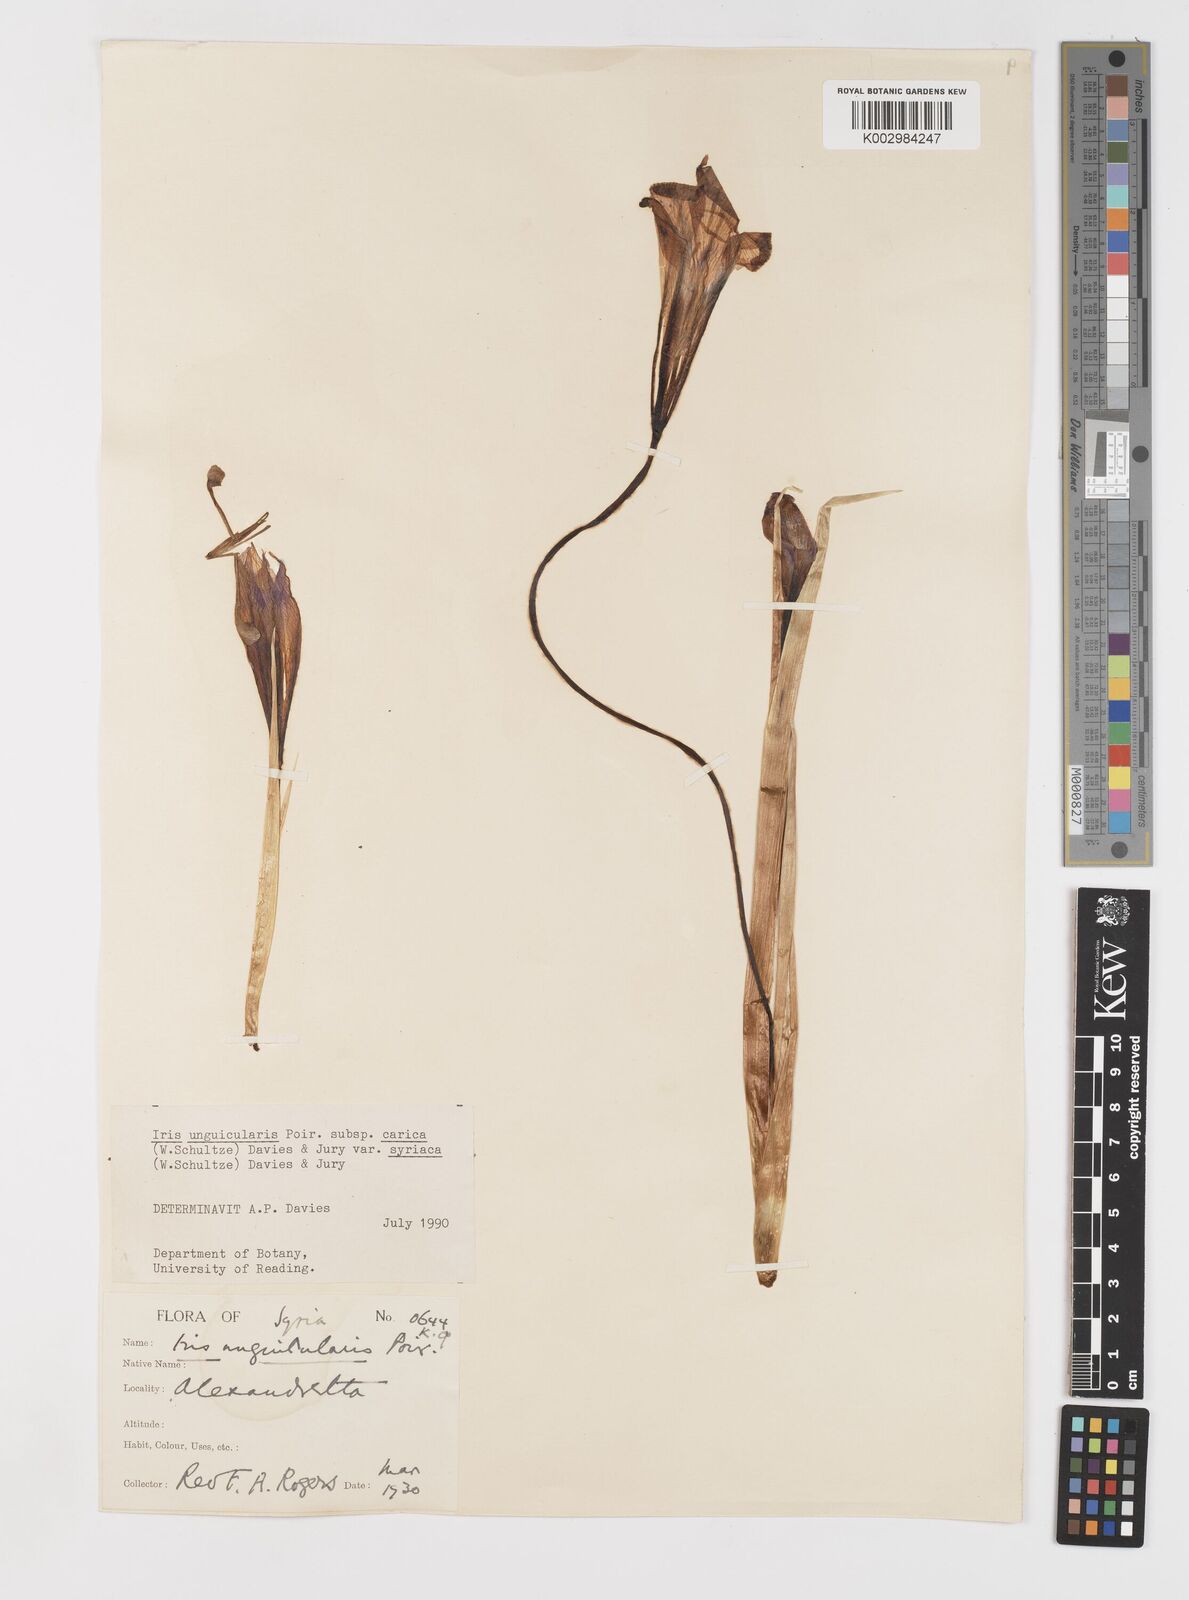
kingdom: Plantae
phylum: Tracheophyta
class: Liliopsida
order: Asparagales
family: Iridaceae
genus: Iris
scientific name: Iris unguicularis
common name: Algerian iris
